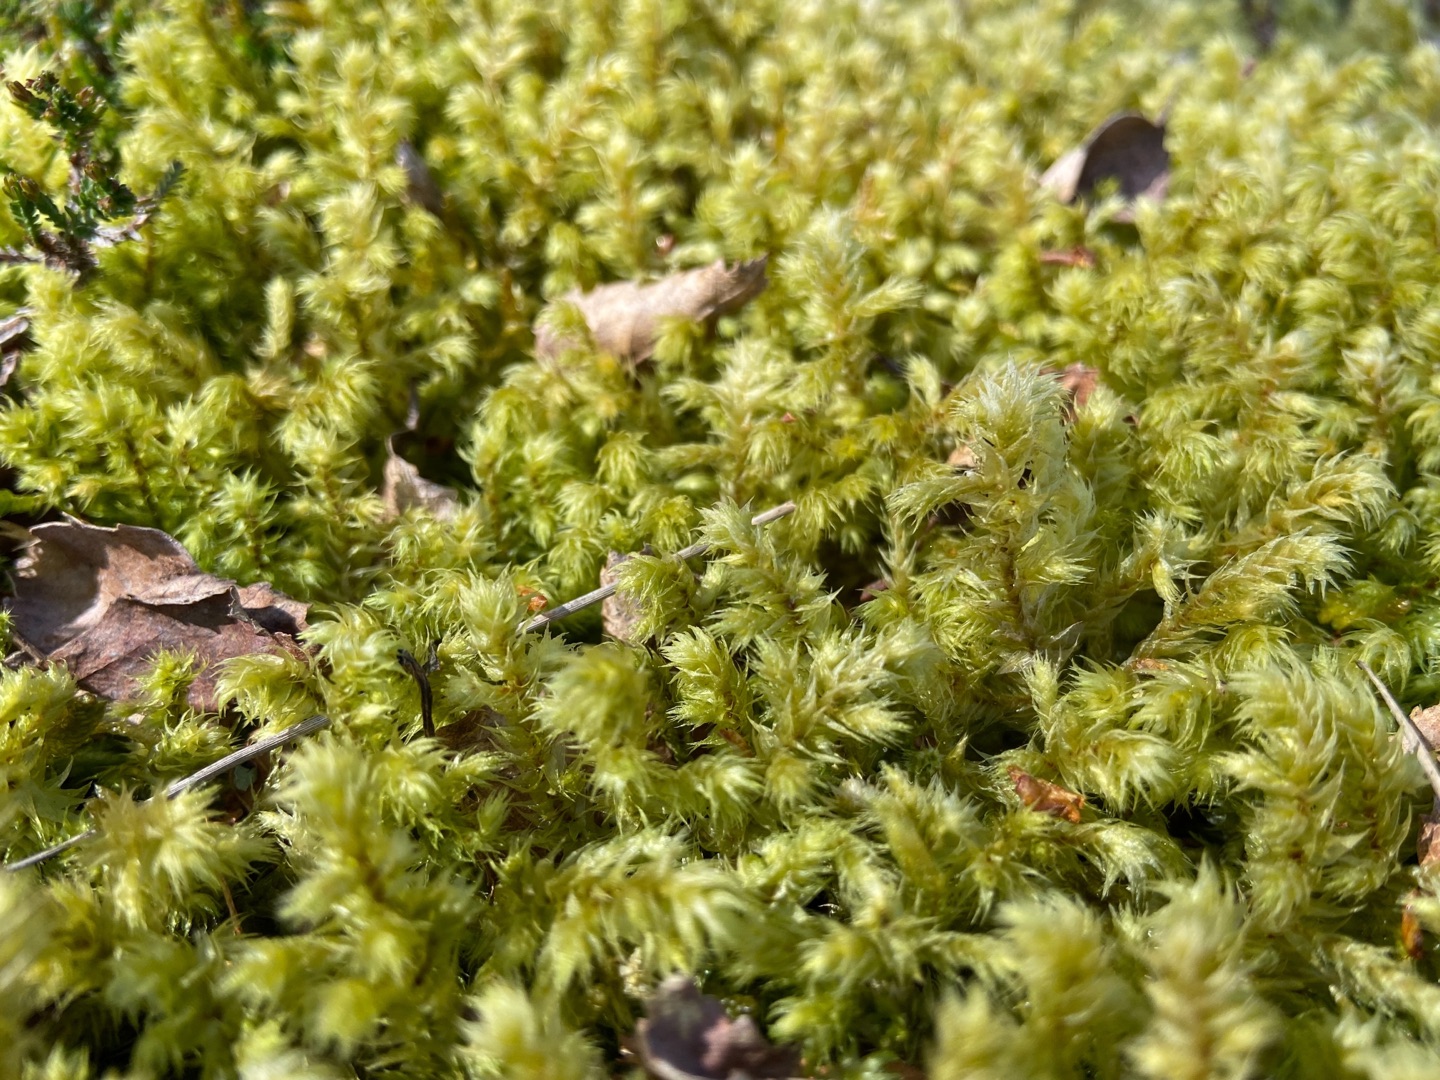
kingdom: Plantae
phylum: Bryophyta
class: Bryopsida
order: Hypnales
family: Hylocomiaceae
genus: Hylocomiadelphus
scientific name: Hylocomiadelphus triquetrus
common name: Stor kransemos
